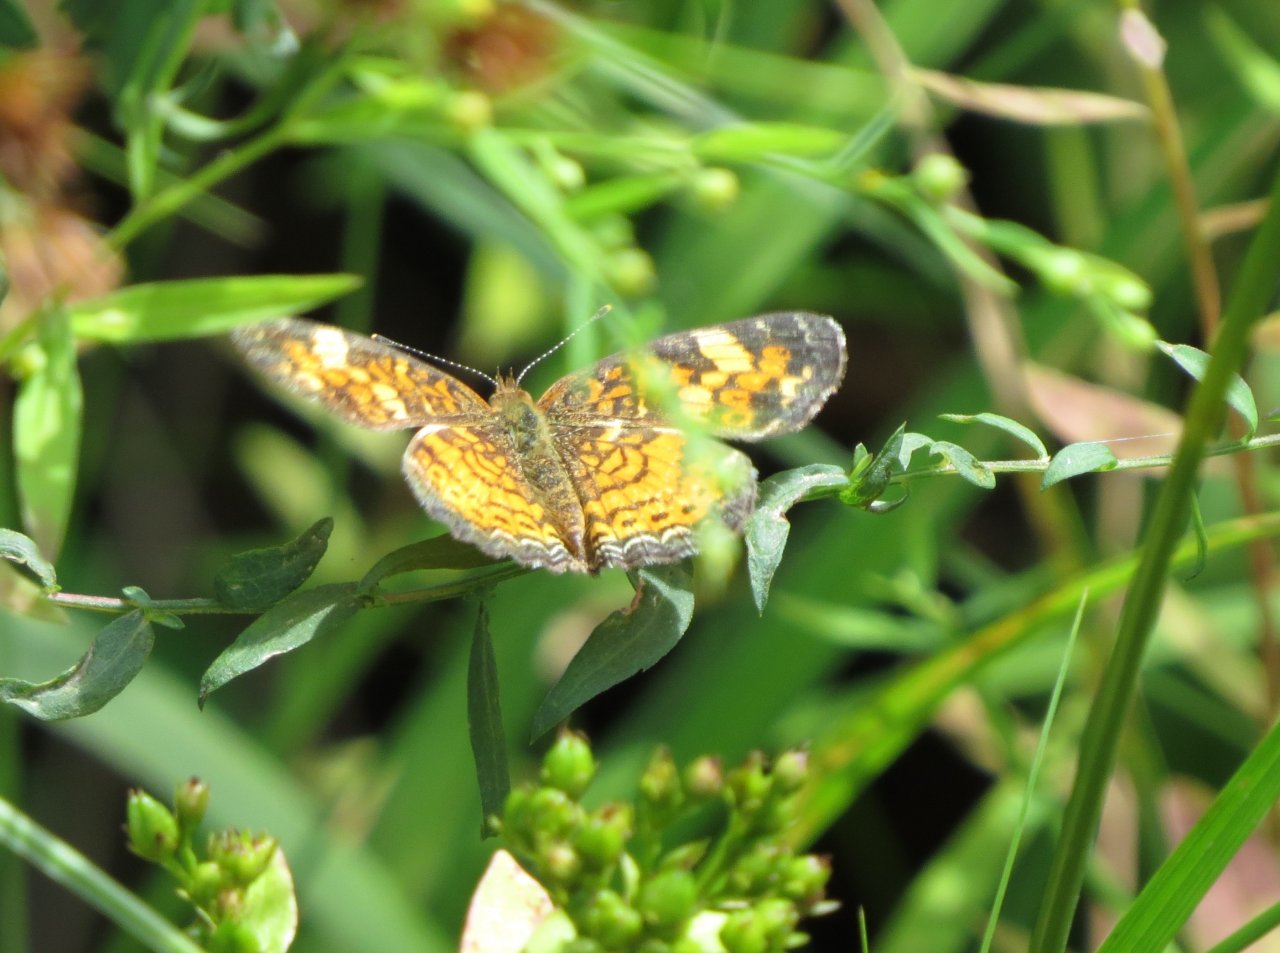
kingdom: Animalia
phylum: Arthropoda
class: Insecta
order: Lepidoptera
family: Nymphalidae
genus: Phyciodes
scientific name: Phyciodes tharos
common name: Pearl Crescent
